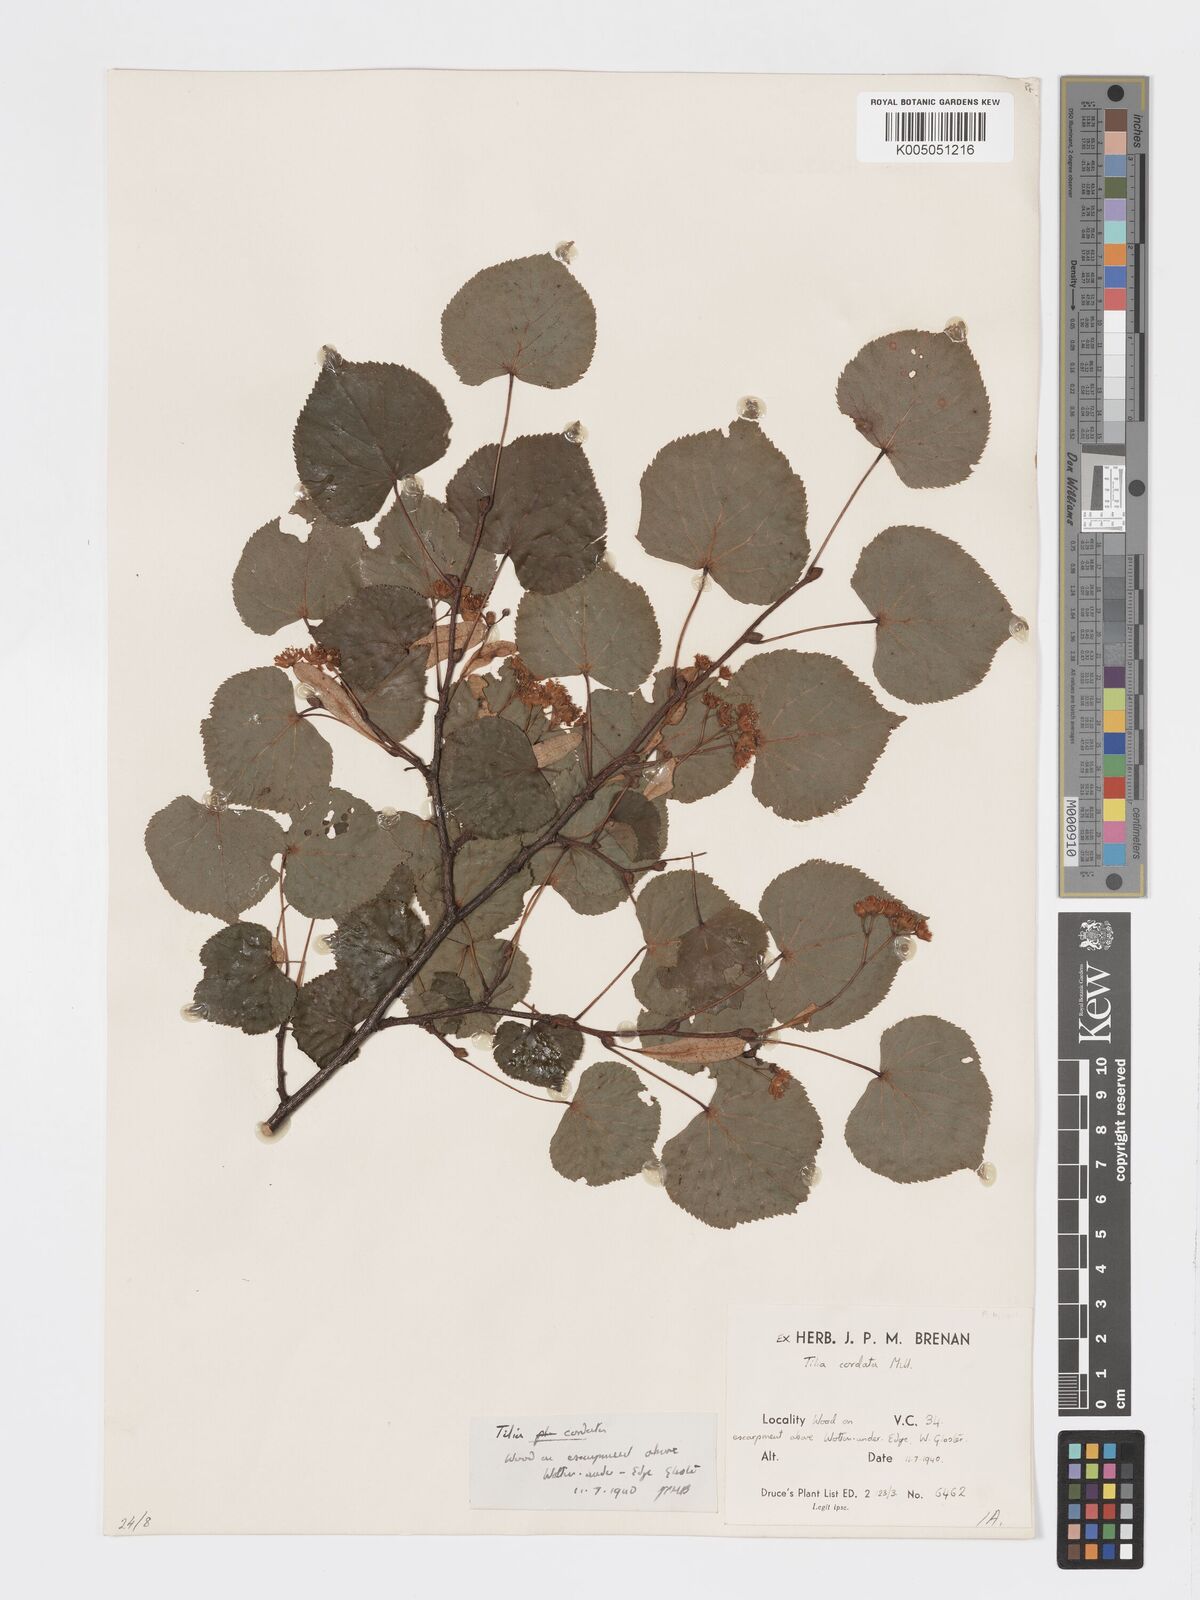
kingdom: Plantae
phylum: Tracheophyta
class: Magnoliopsida
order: Malvales
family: Malvaceae
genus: Tilia
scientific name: Tilia cordata
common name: Small-leaved lime
